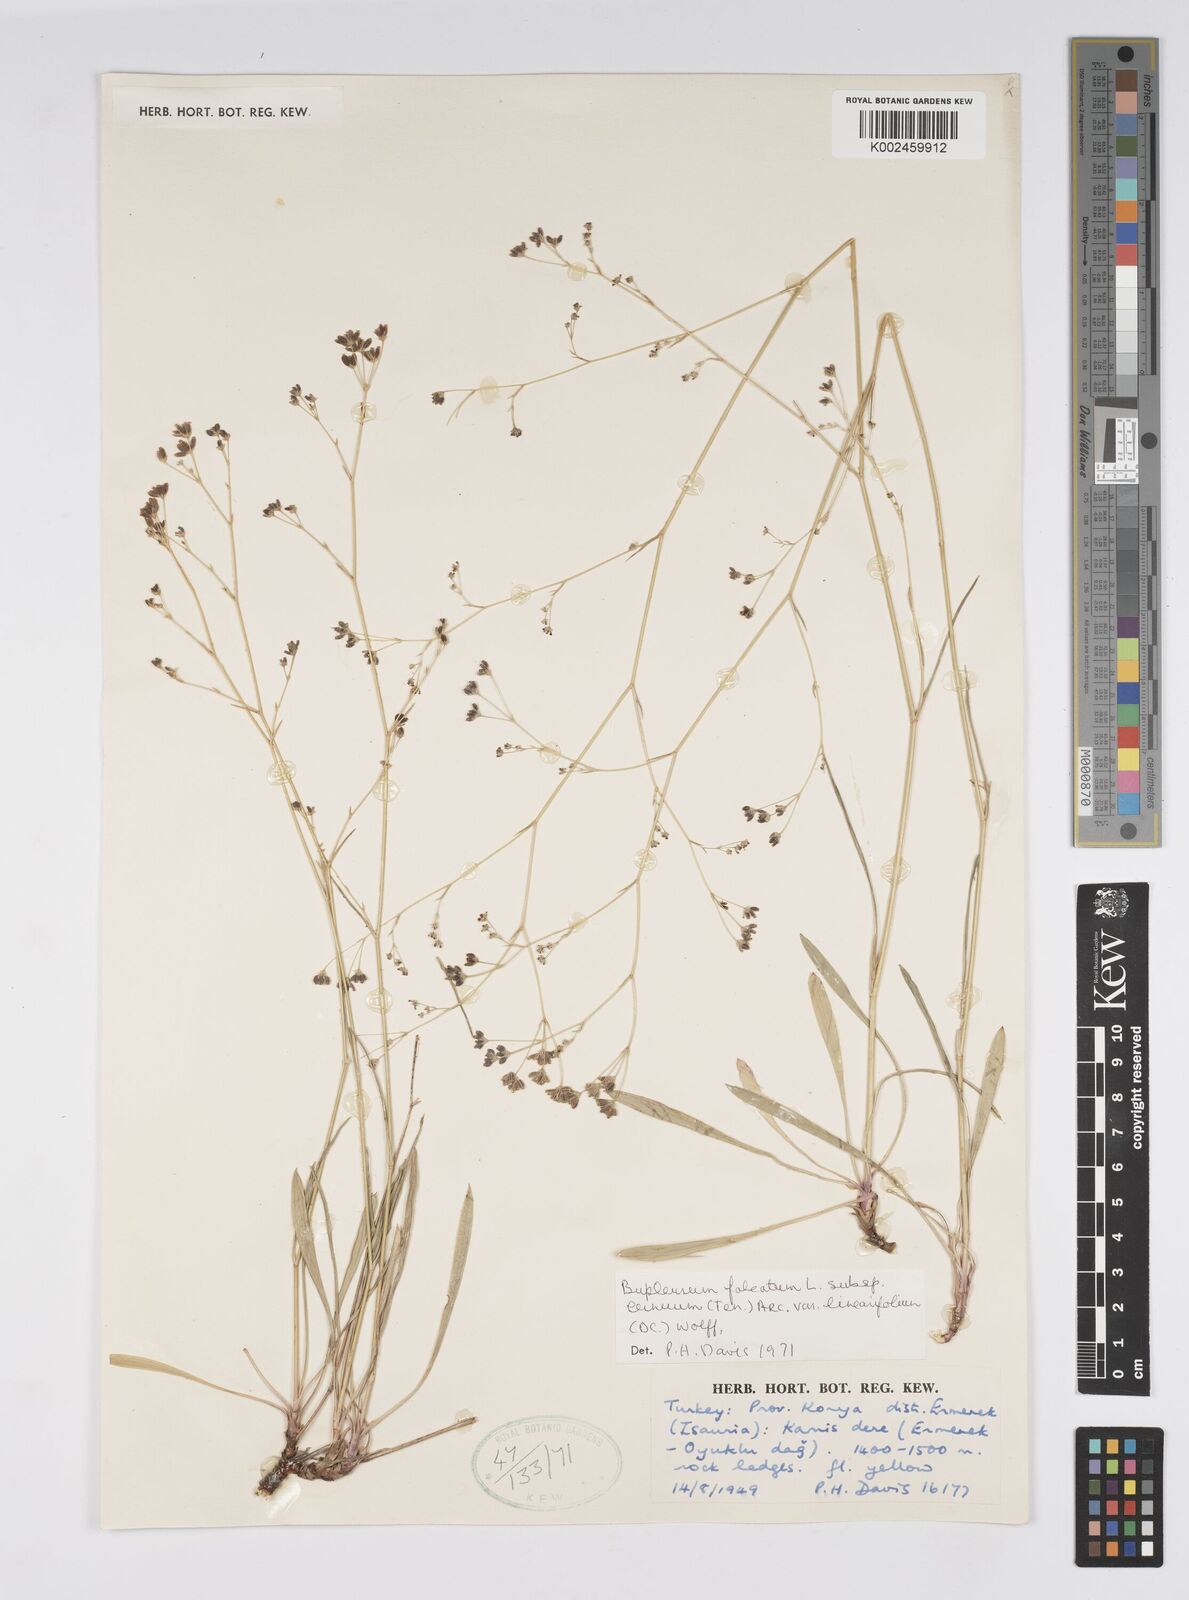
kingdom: Plantae
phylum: Tracheophyta
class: Magnoliopsida
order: Apiales
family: Apiaceae
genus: Bupleurum
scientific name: Bupleurum falcatum
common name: Sickle-leaved hare's-ear
